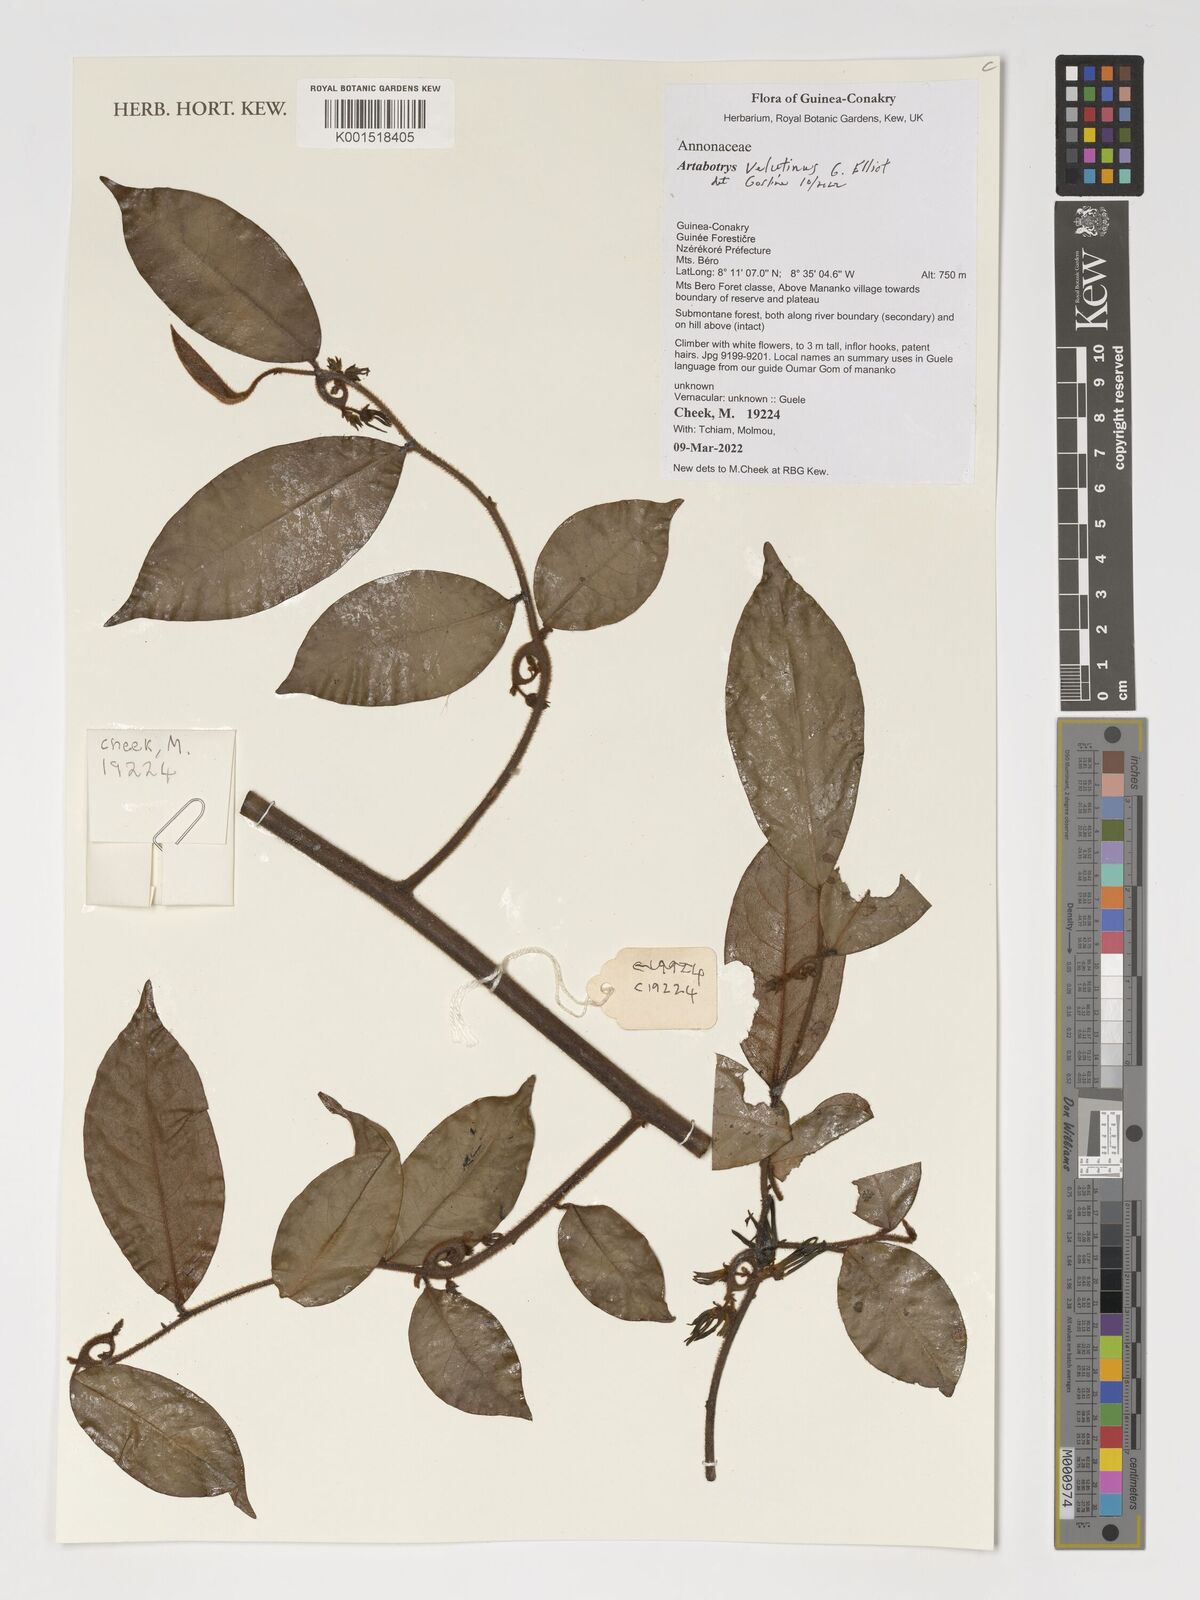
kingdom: Plantae
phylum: Tracheophyta
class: Magnoliopsida
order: Magnoliales
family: Annonaceae
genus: Artabotrys
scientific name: Artabotrys velutinus
